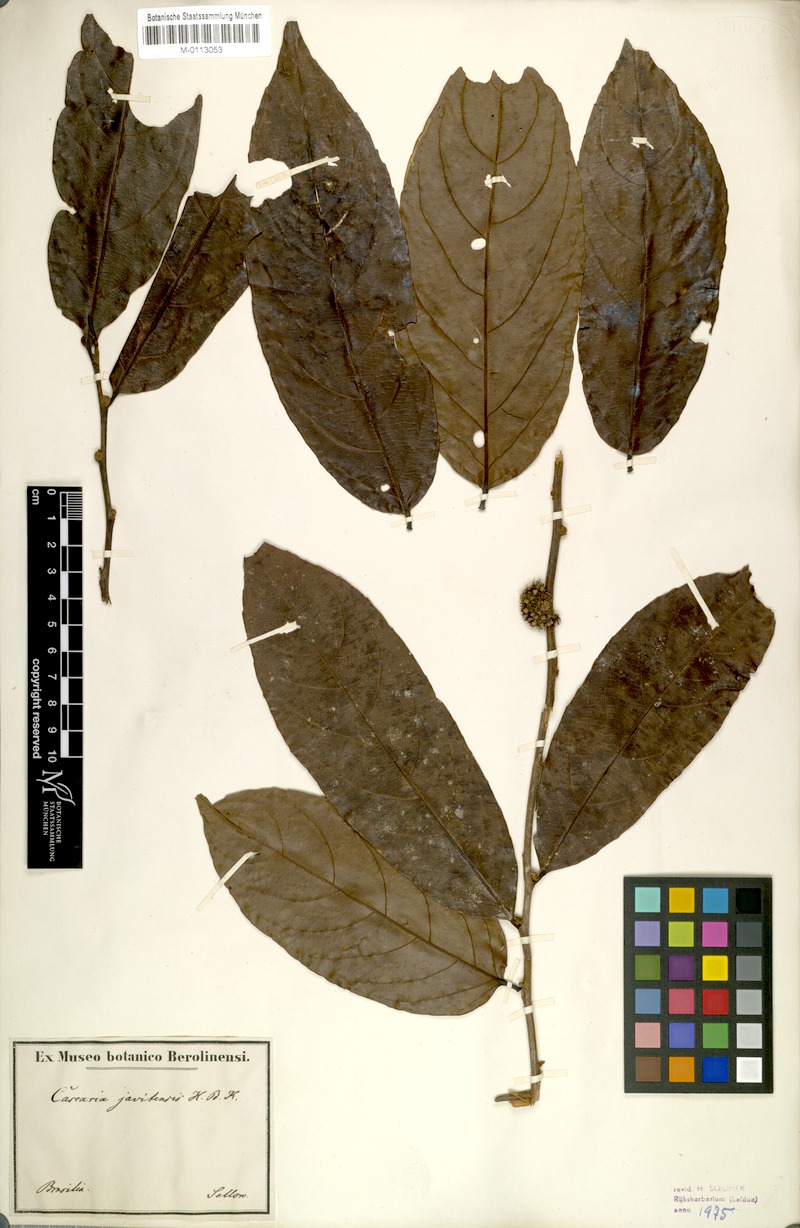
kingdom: Plantae
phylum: Tracheophyta
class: Magnoliopsida
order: Malpighiales
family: Salicaceae
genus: Piparea
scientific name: Piparea multiflora
